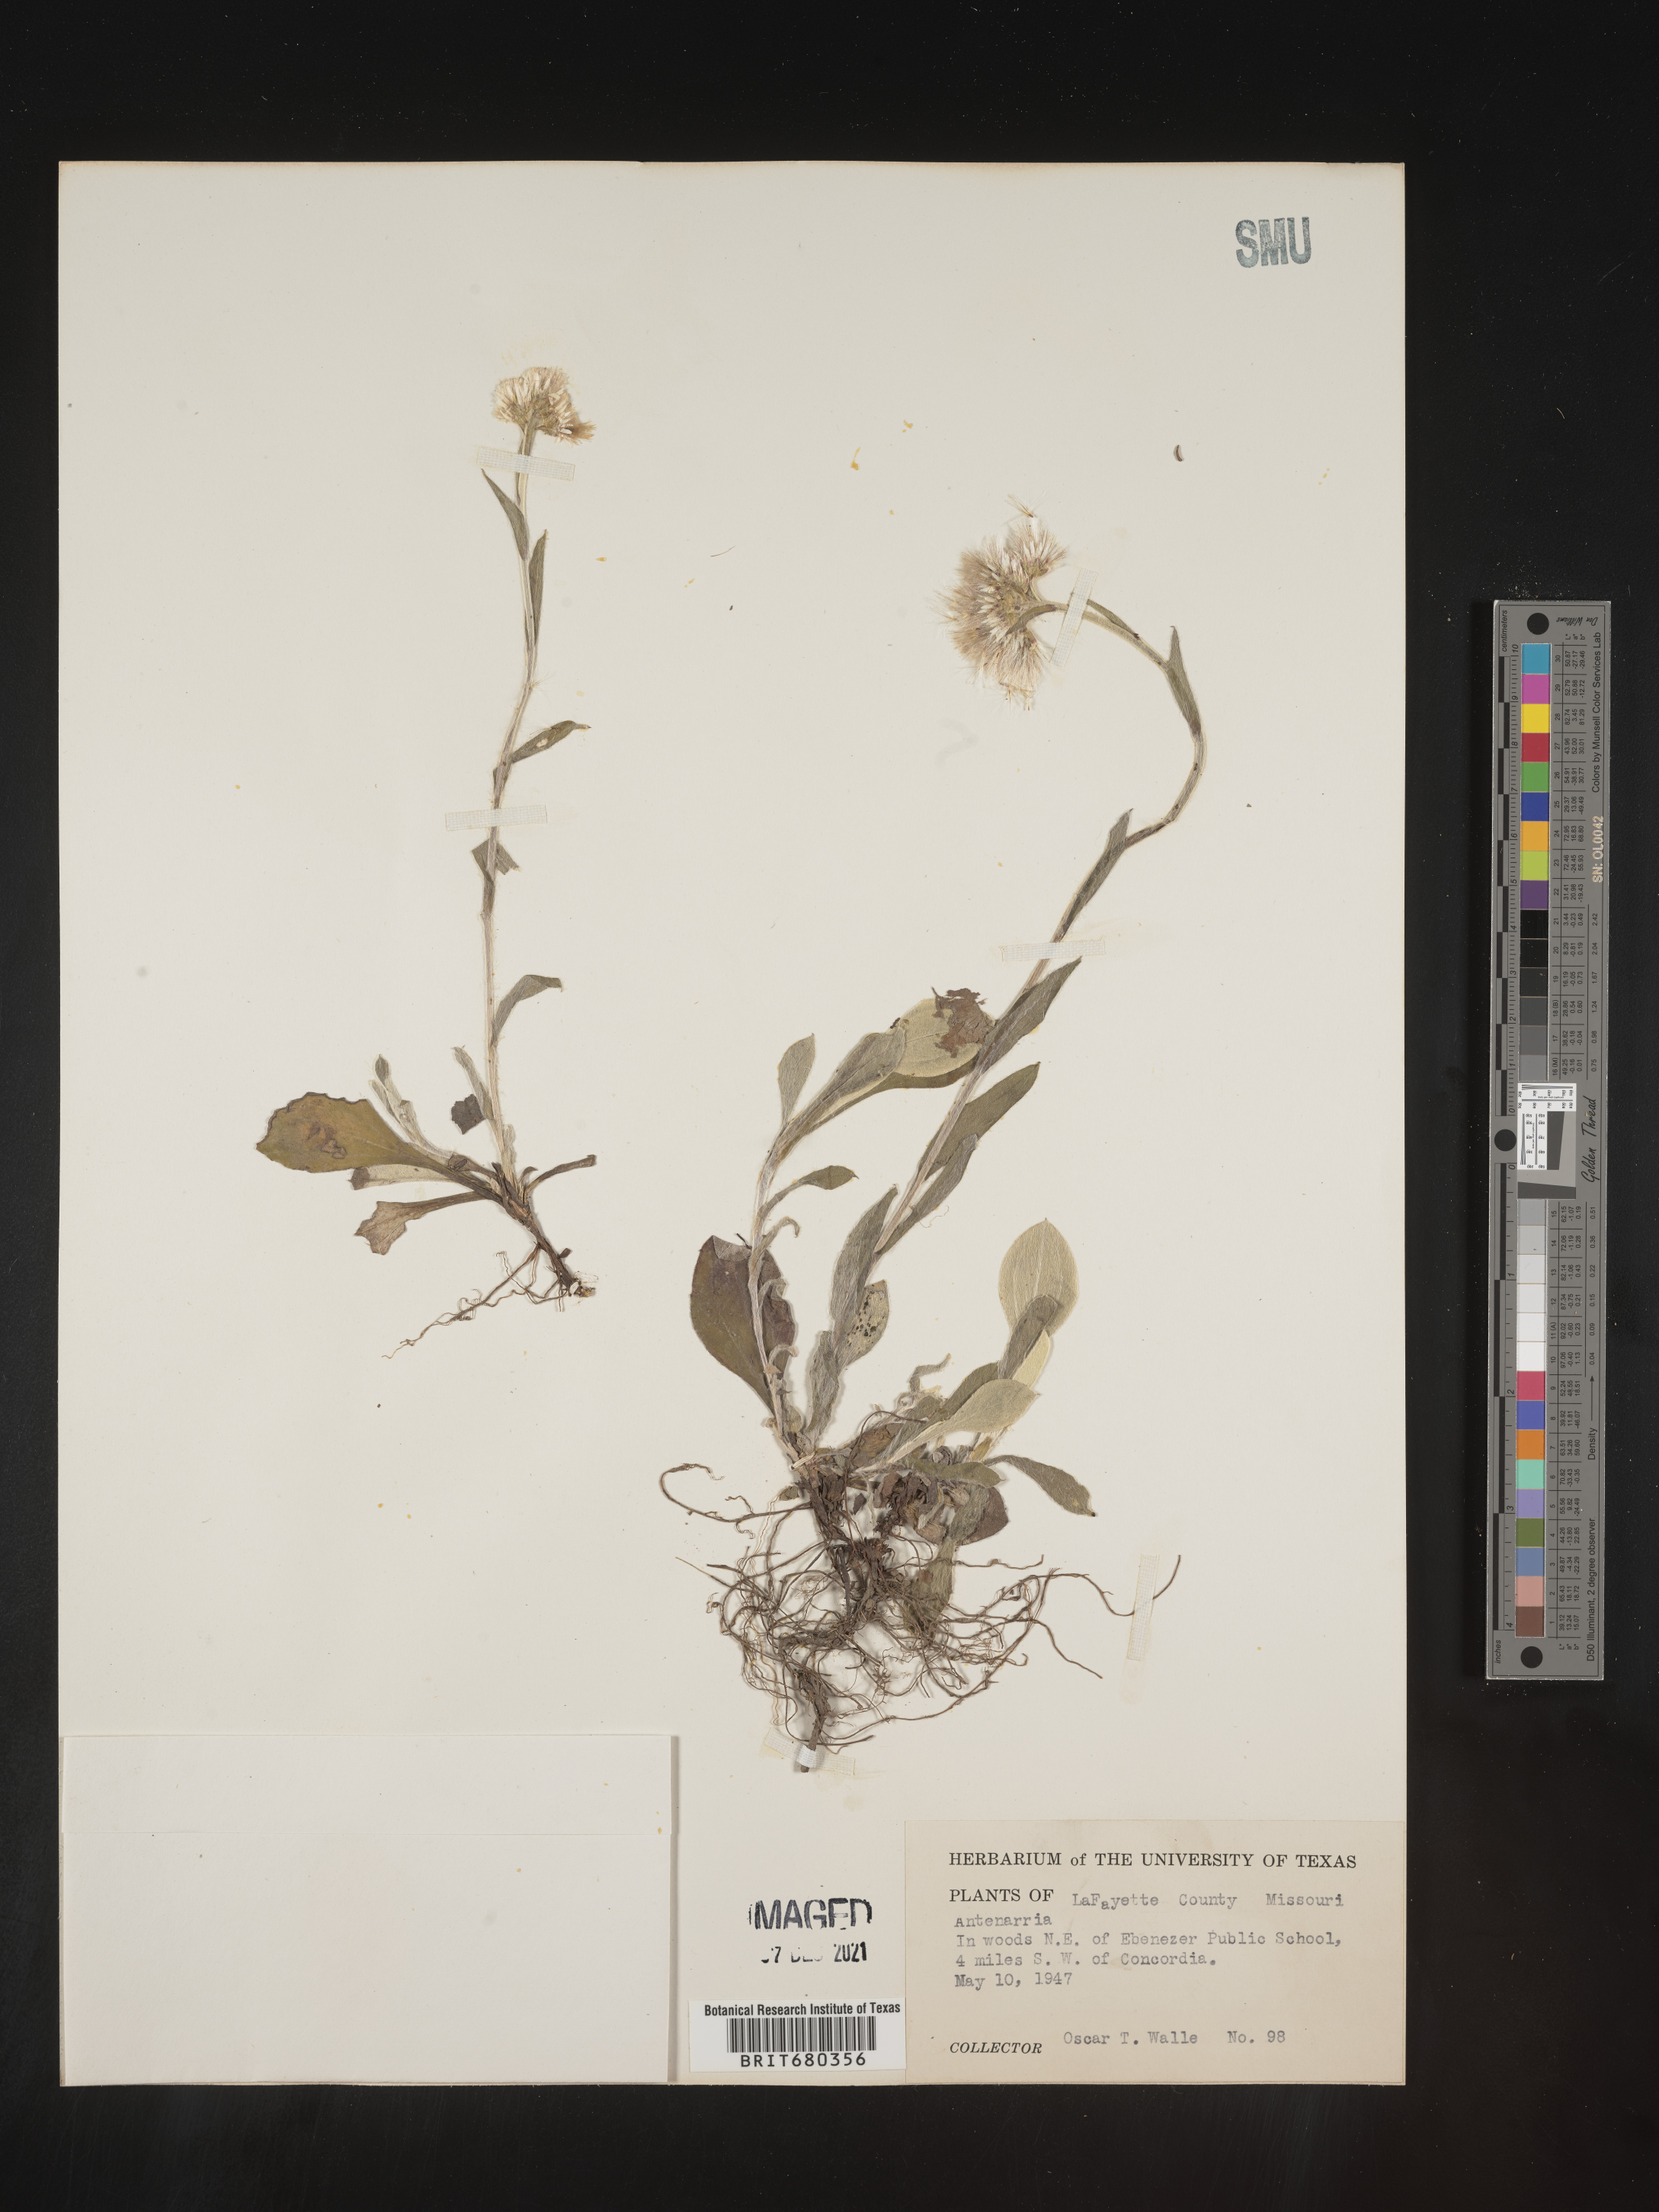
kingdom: Plantae
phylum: Tracheophyta
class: Magnoliopsida
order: Asterales
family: Asteraceae
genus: Antennaria
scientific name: Antennaria
